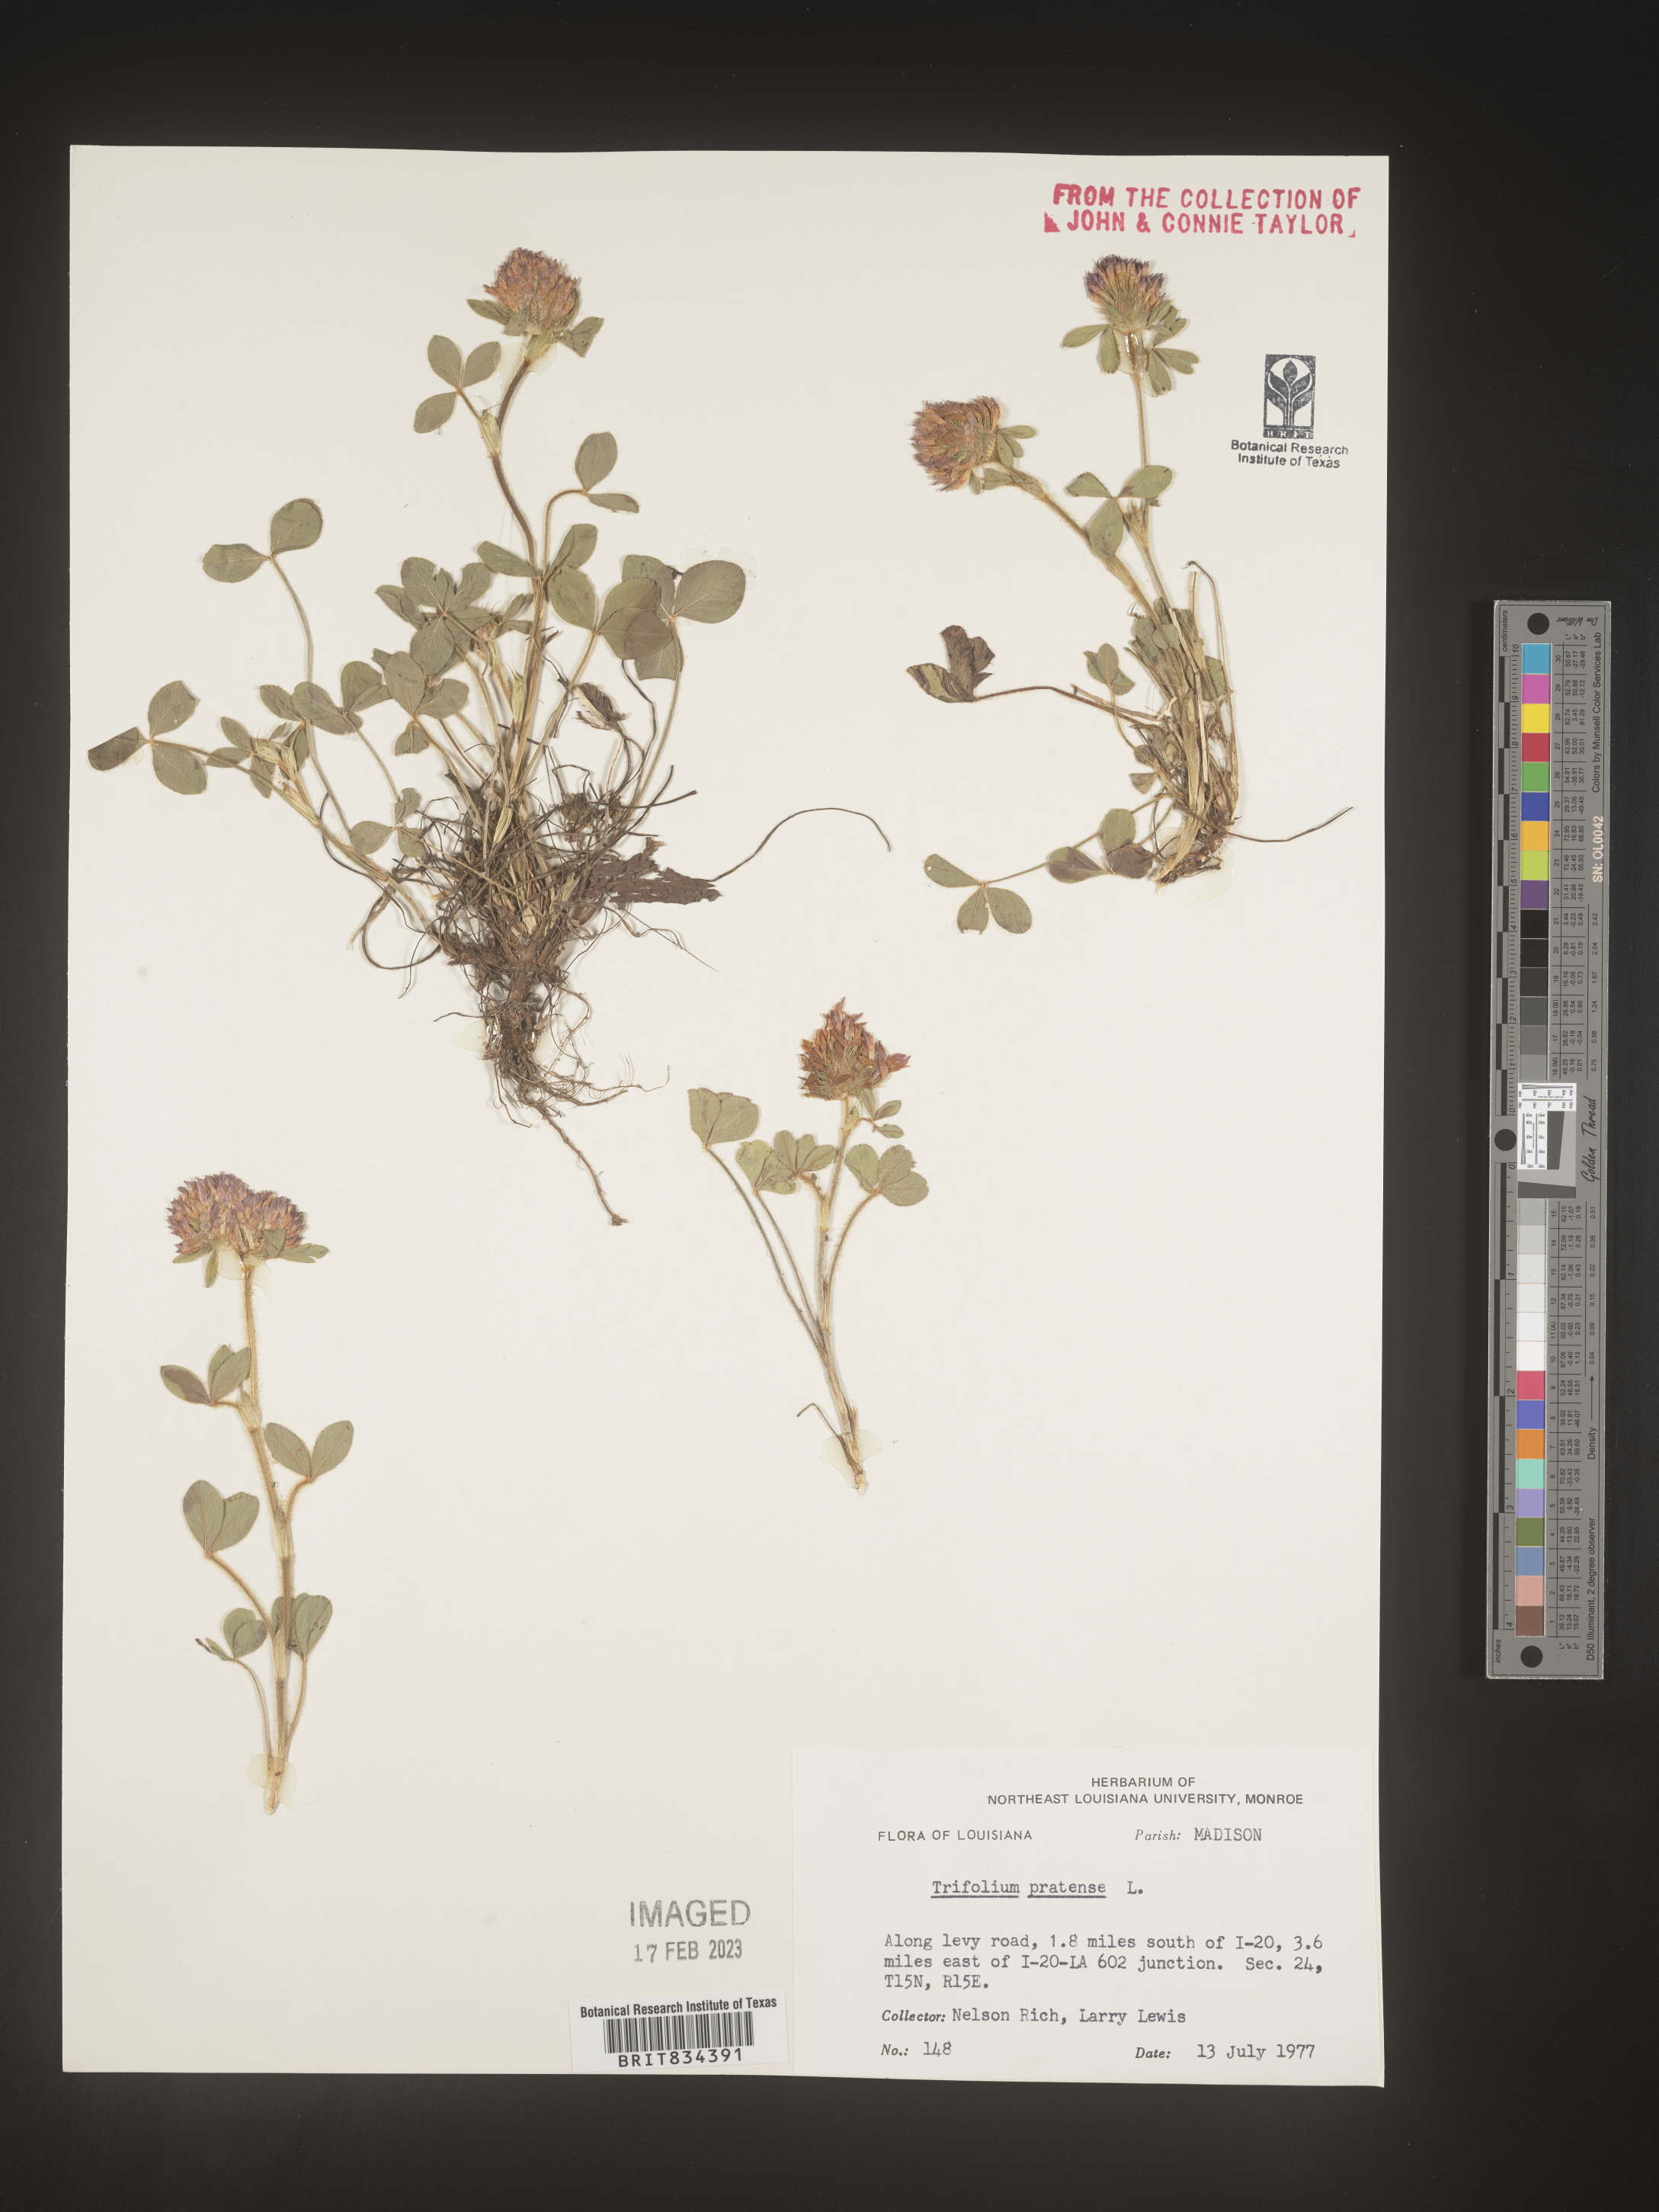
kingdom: Plantae
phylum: Tracheophyta
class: Magnoliopsida
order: Fabales
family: Fabaceae
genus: Trifolium
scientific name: Trifolium pratense
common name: Red clover
